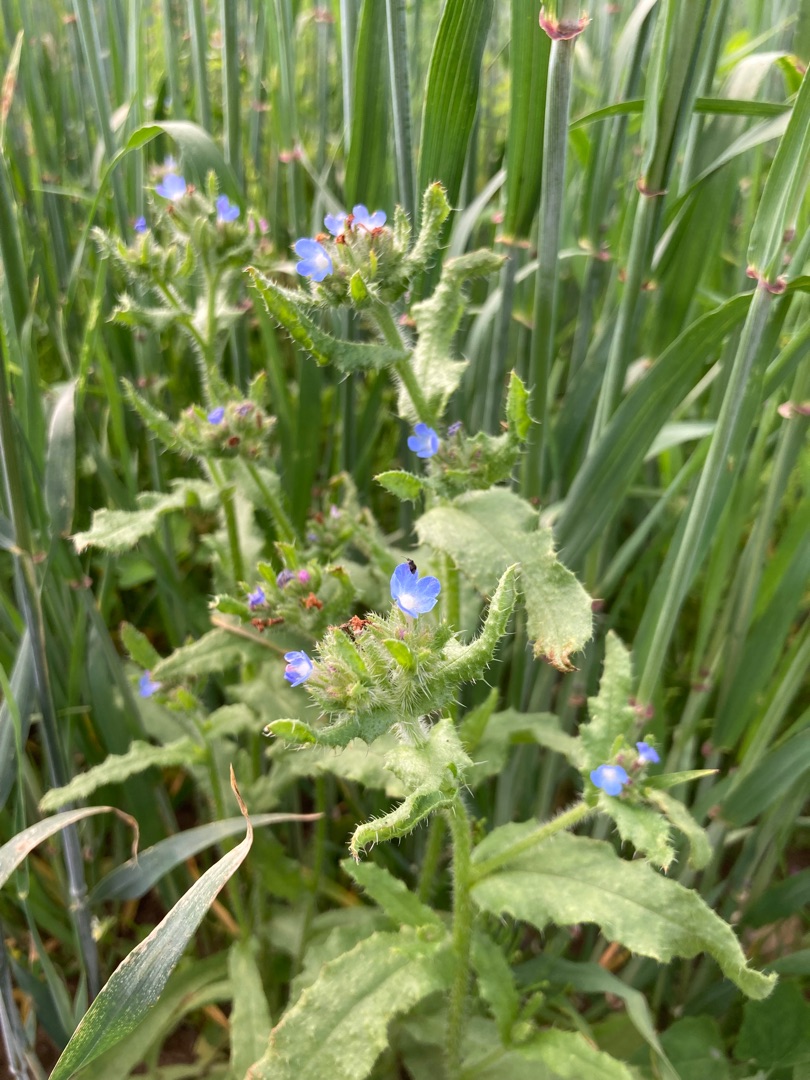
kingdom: Plantae
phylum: Tracheophyta
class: Magnoliopsida
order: Boraginales
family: Boraginaceae
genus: Lycopsis
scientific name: Lycopsis arvensis
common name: Krumhals
